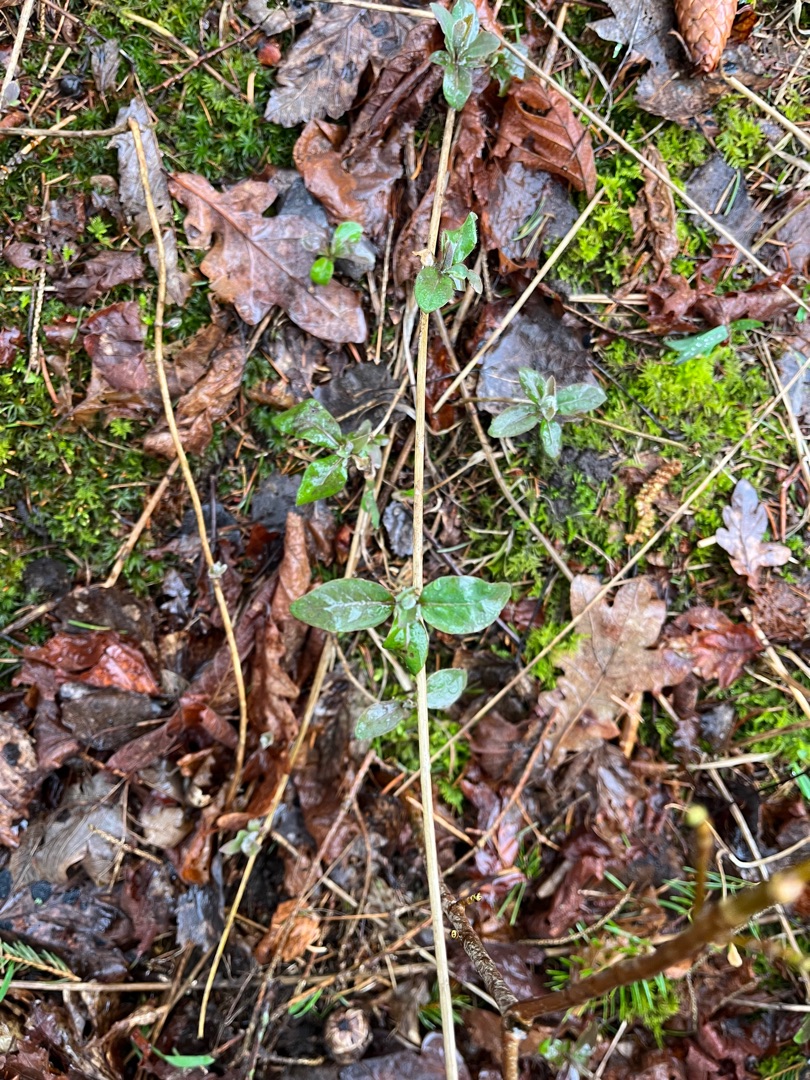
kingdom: Plantae
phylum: Tracheophyta
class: Magnoliopsida
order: Dipsacales
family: Caprifoliaceae
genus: Lonicera
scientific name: Lonicera periclymenum
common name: Almindelig gedeblad
